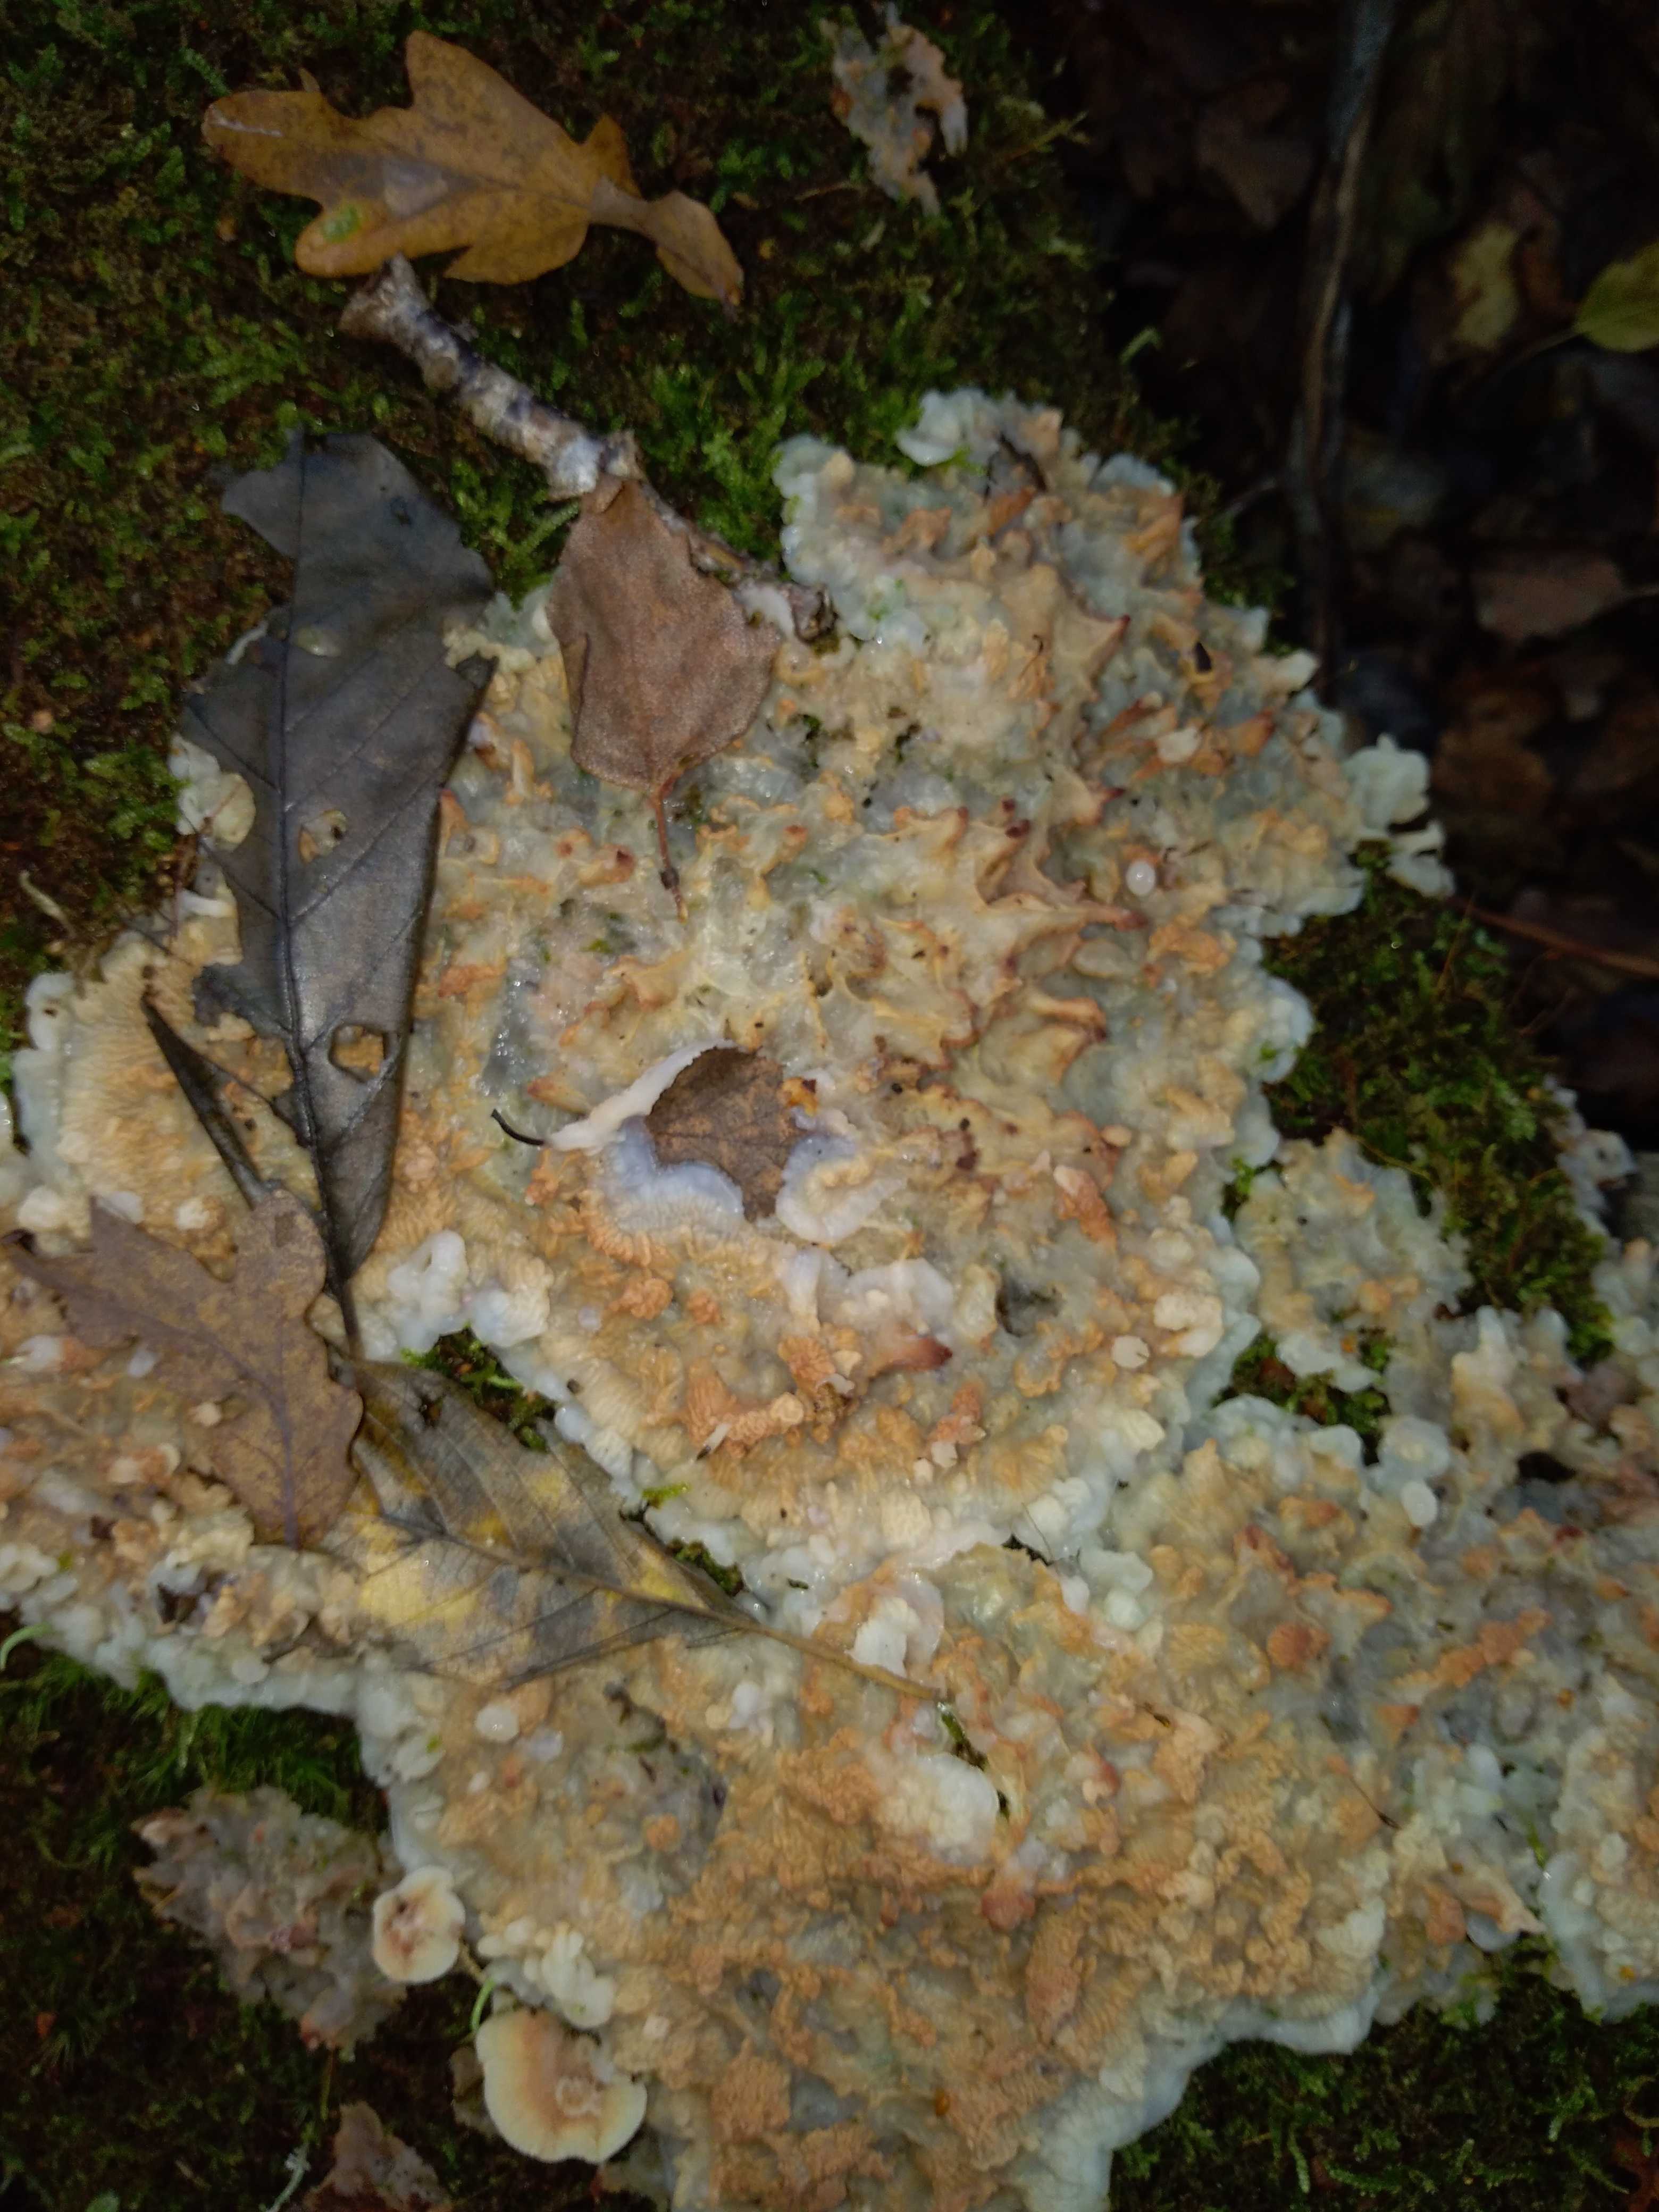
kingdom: Fungi
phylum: Basidiomycota
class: Agaricomycetes
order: Polyporales
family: Meruliaceae
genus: Phlebia
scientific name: Phlebia tremellosa
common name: bævrende åresvamp
